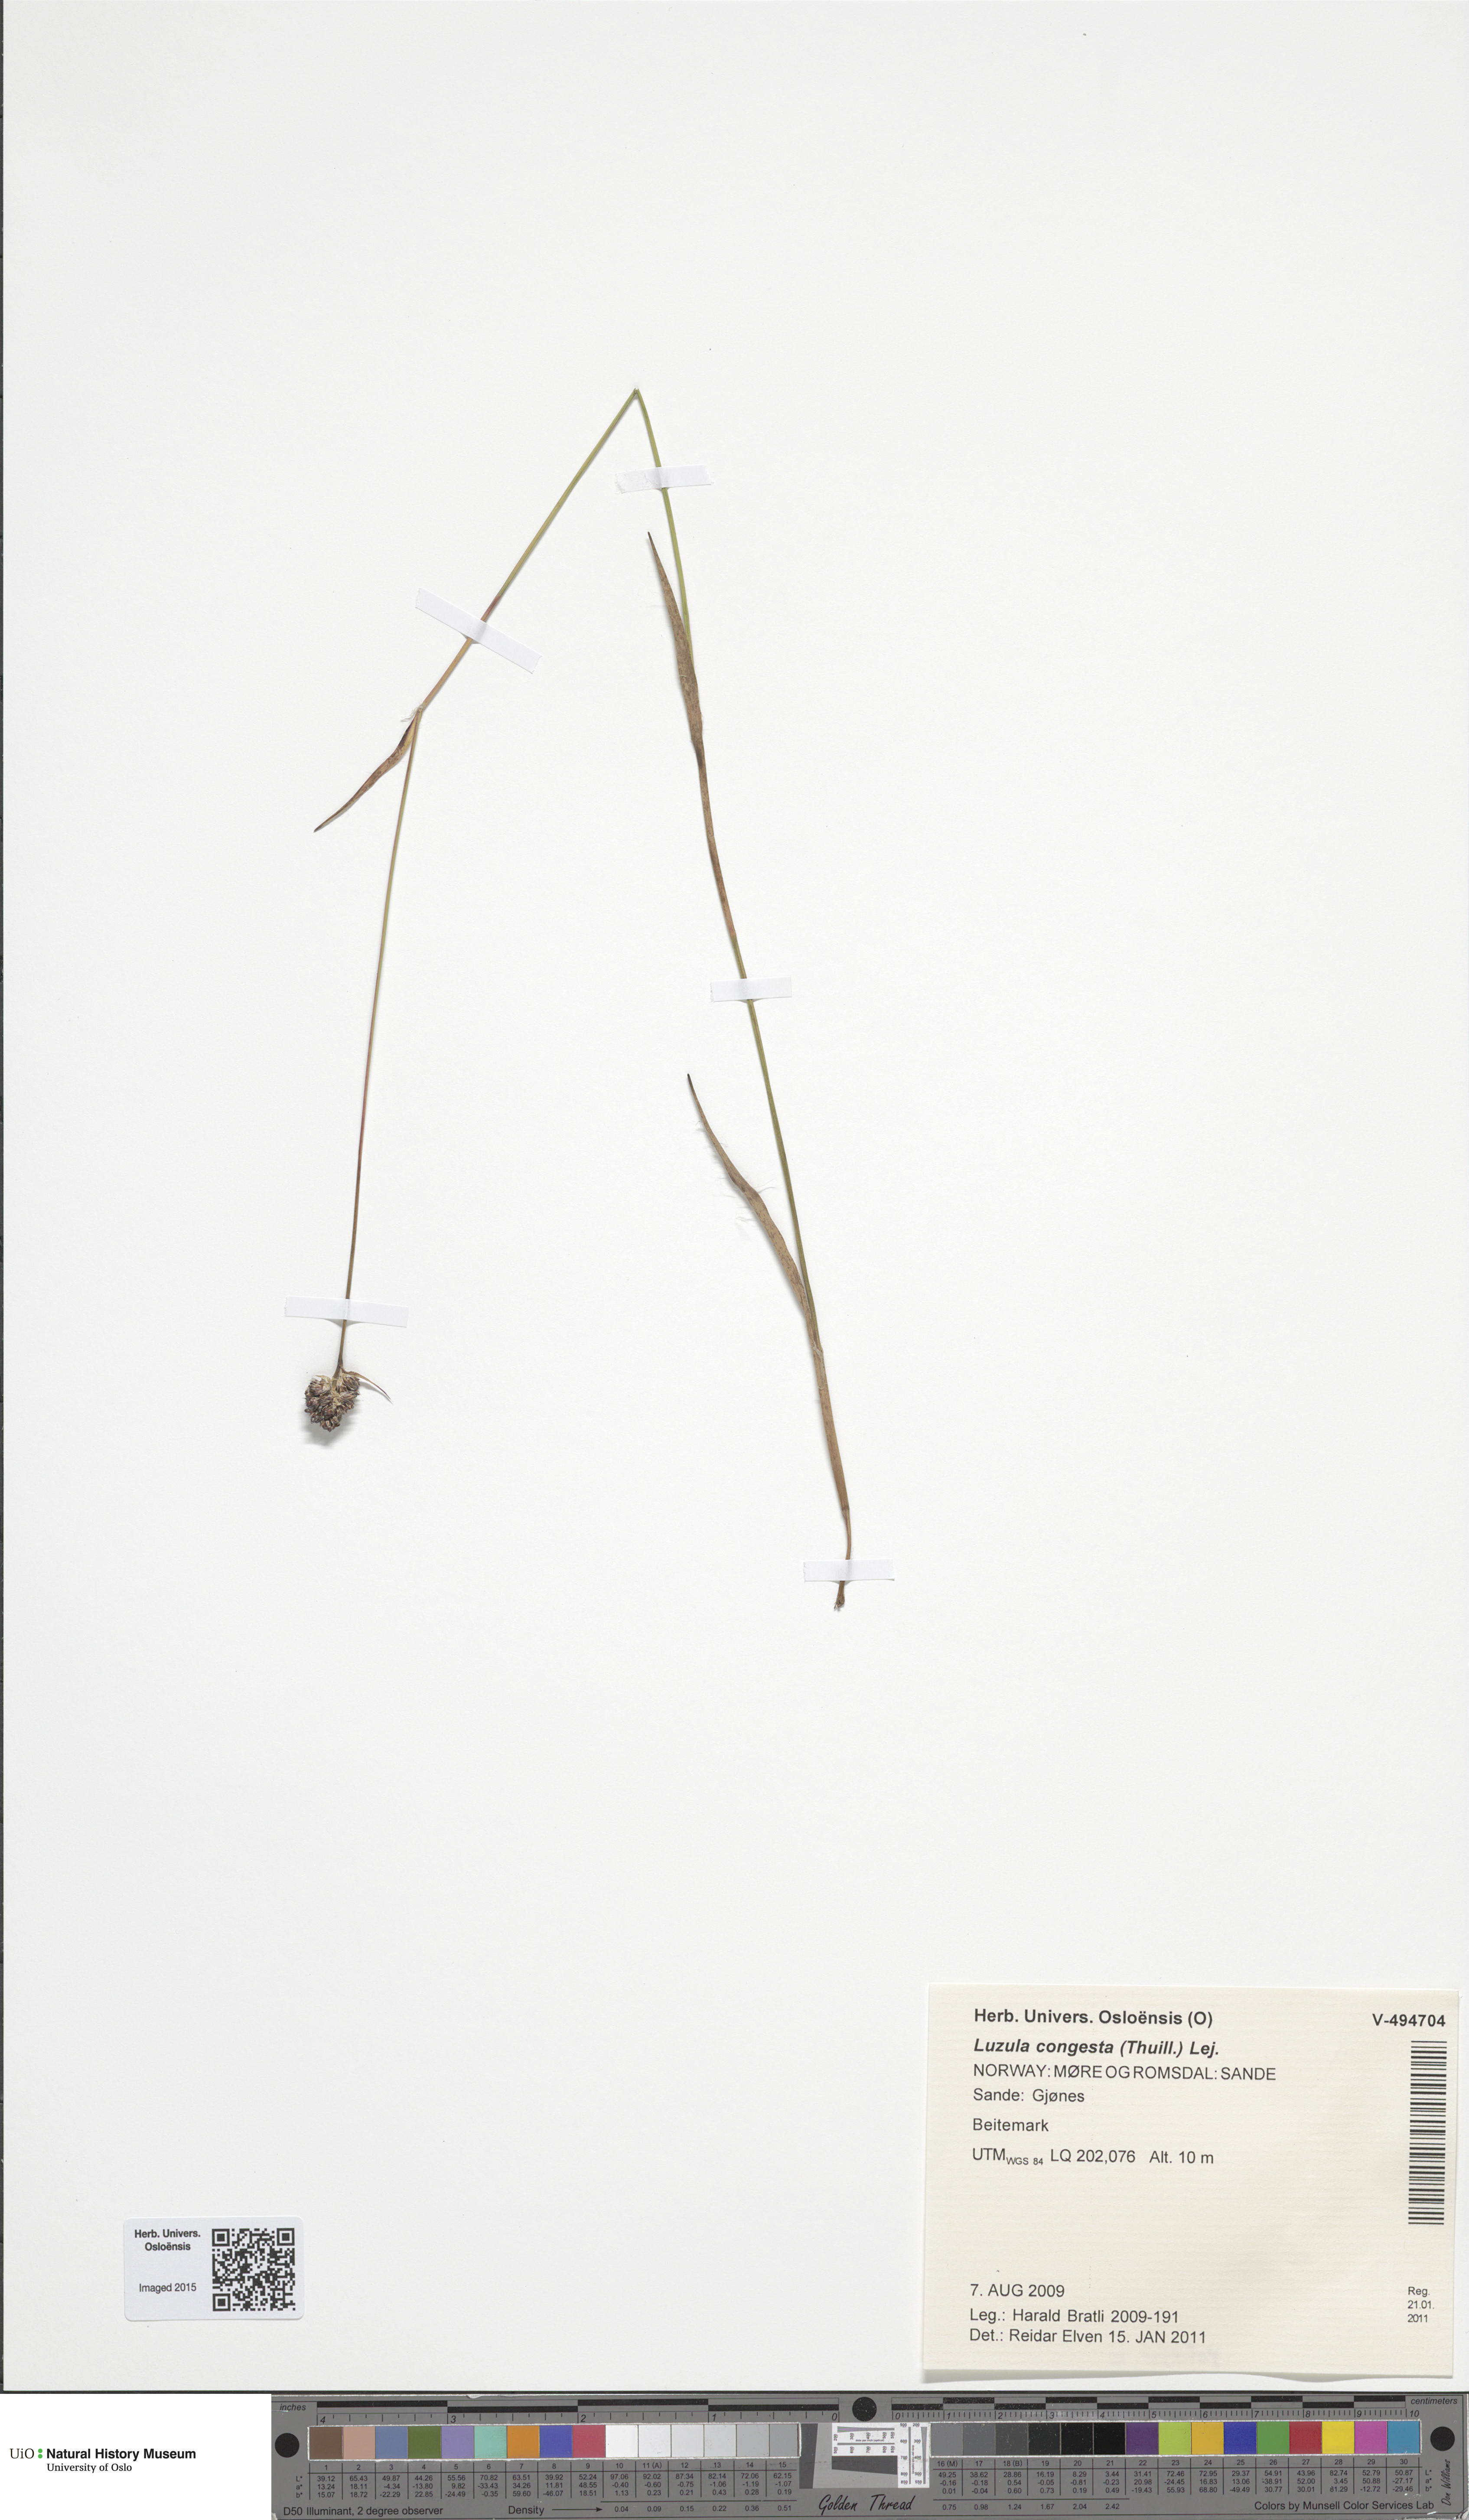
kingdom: Plantae
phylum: Tracheophyta
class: Liliopsida
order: Poales
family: Juncaceae
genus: Luzula
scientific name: Luzula congesta
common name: Heath woodrush
